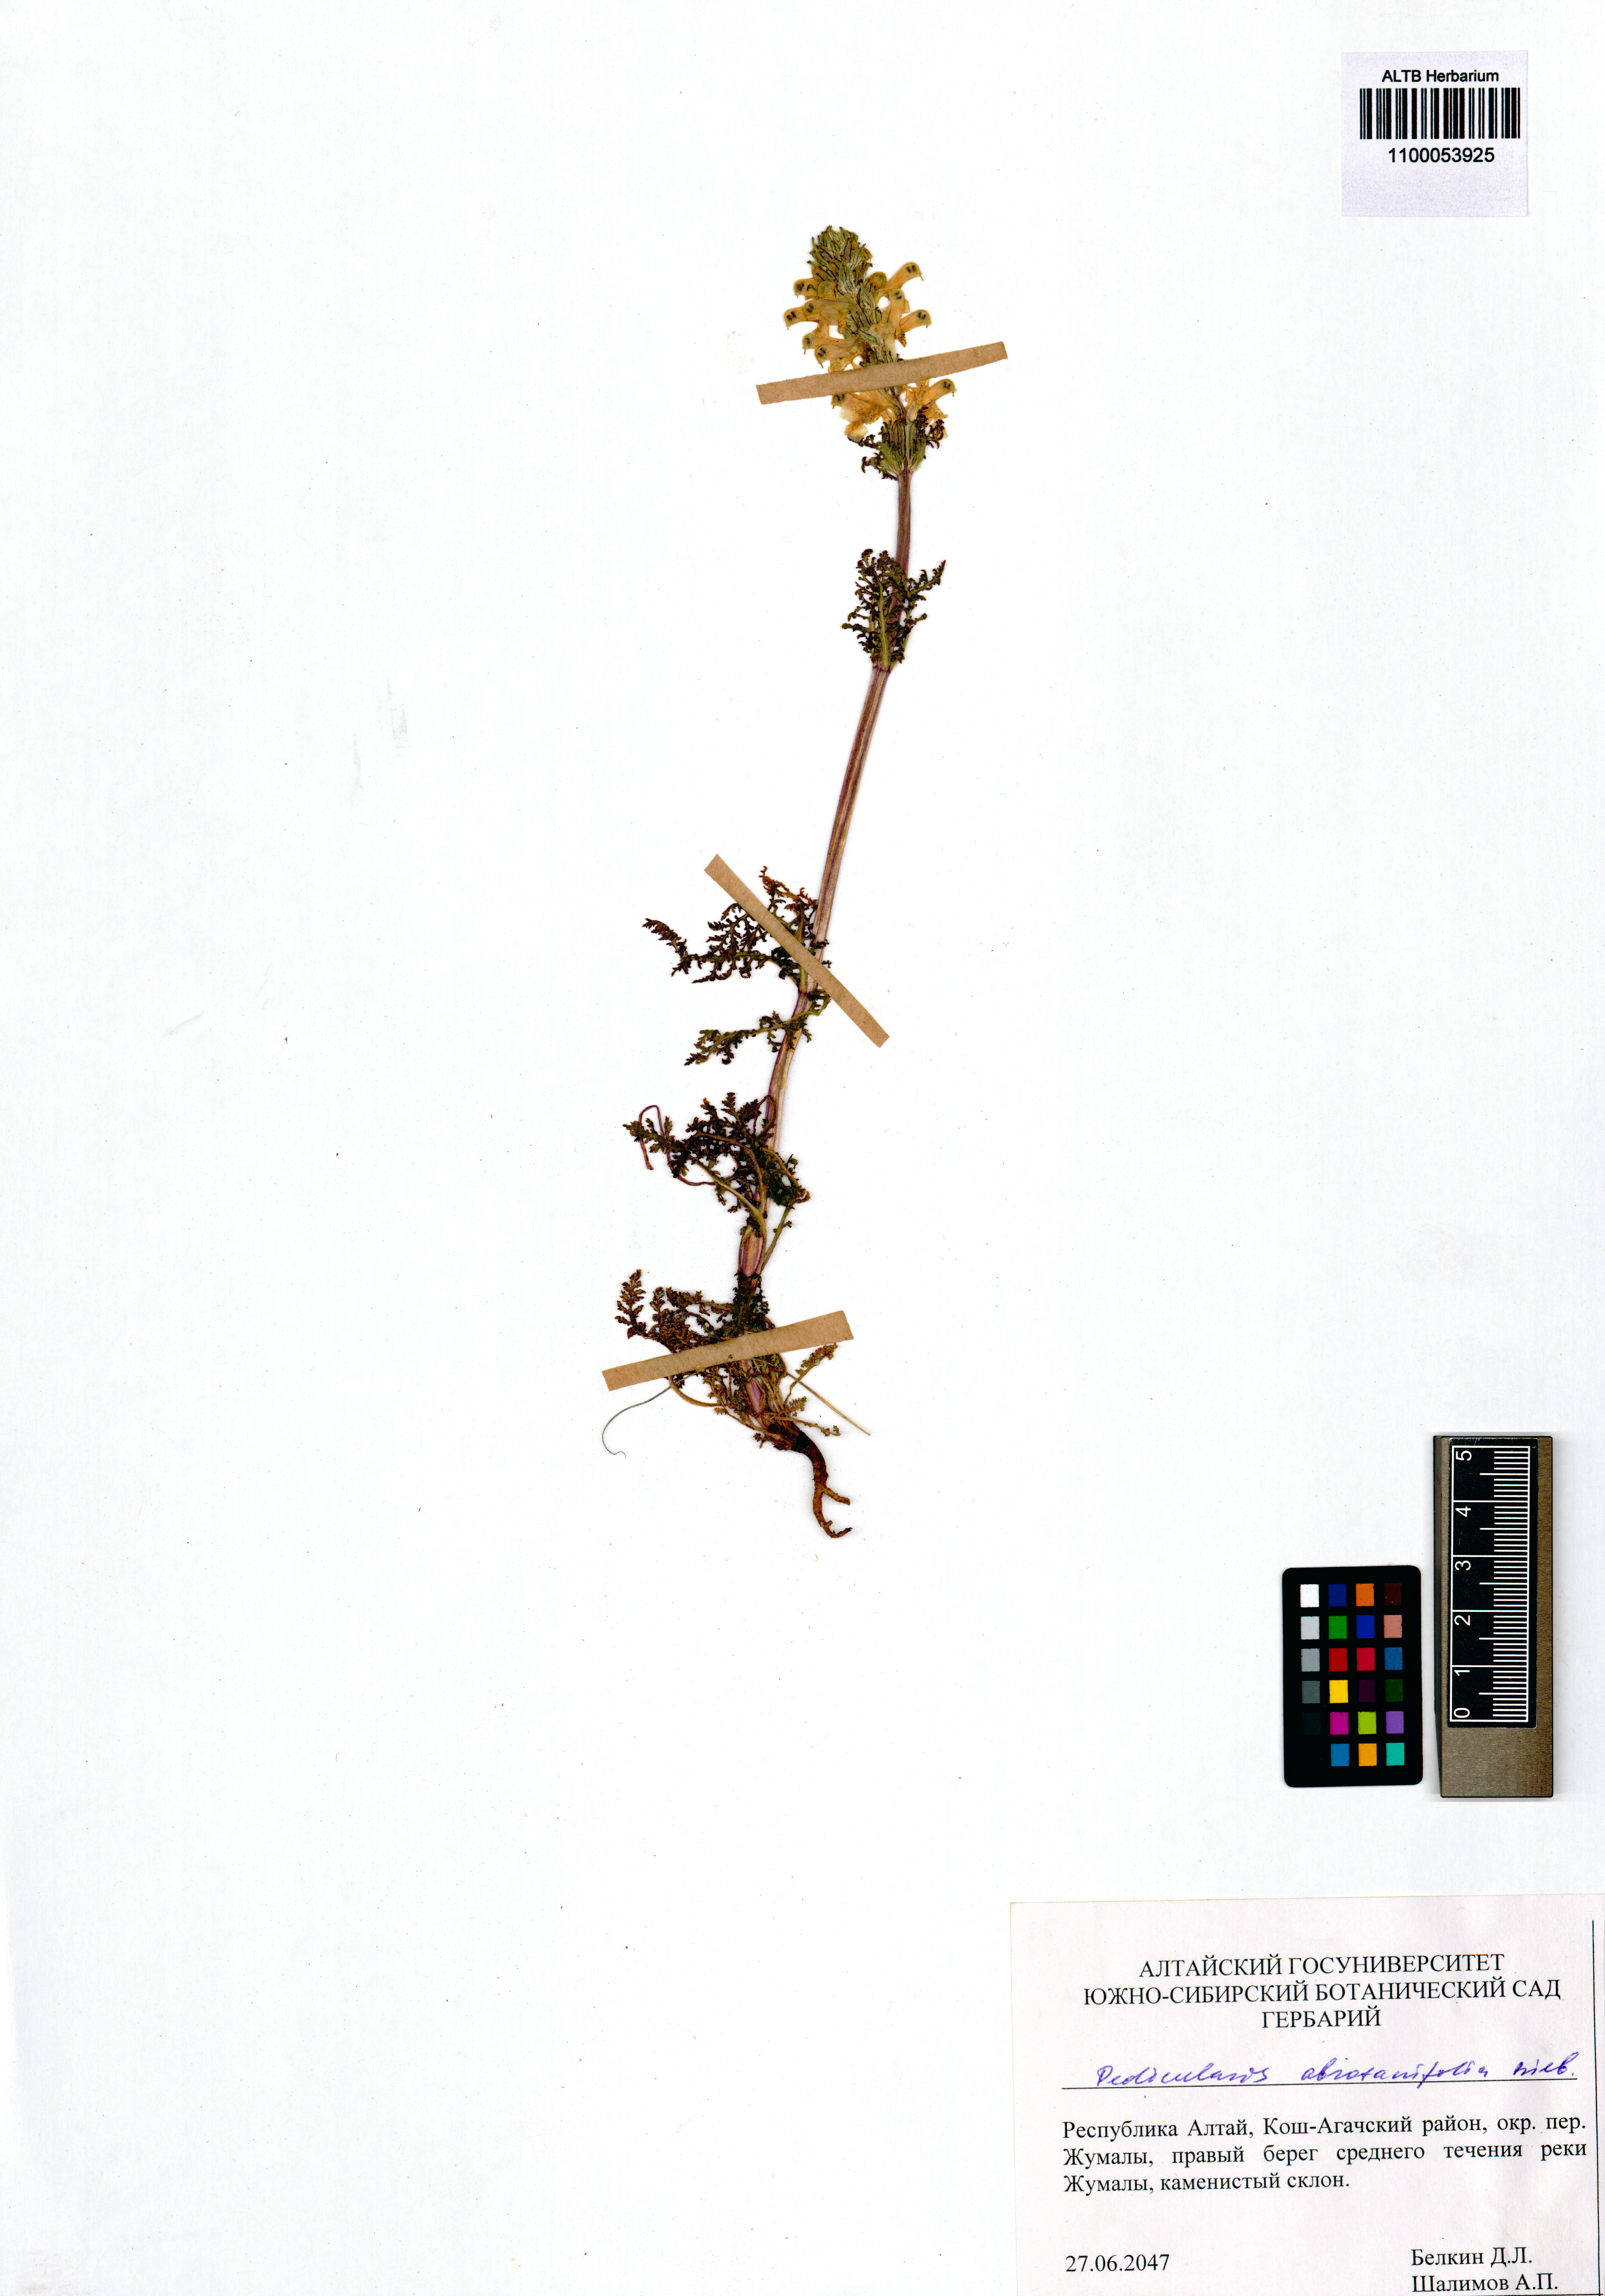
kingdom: Plantae
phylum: Tracheophyta
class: Magnoliopsida
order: Lamiales
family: Plantaginaceae
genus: Veronica
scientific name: Veronica abrotanifolia
